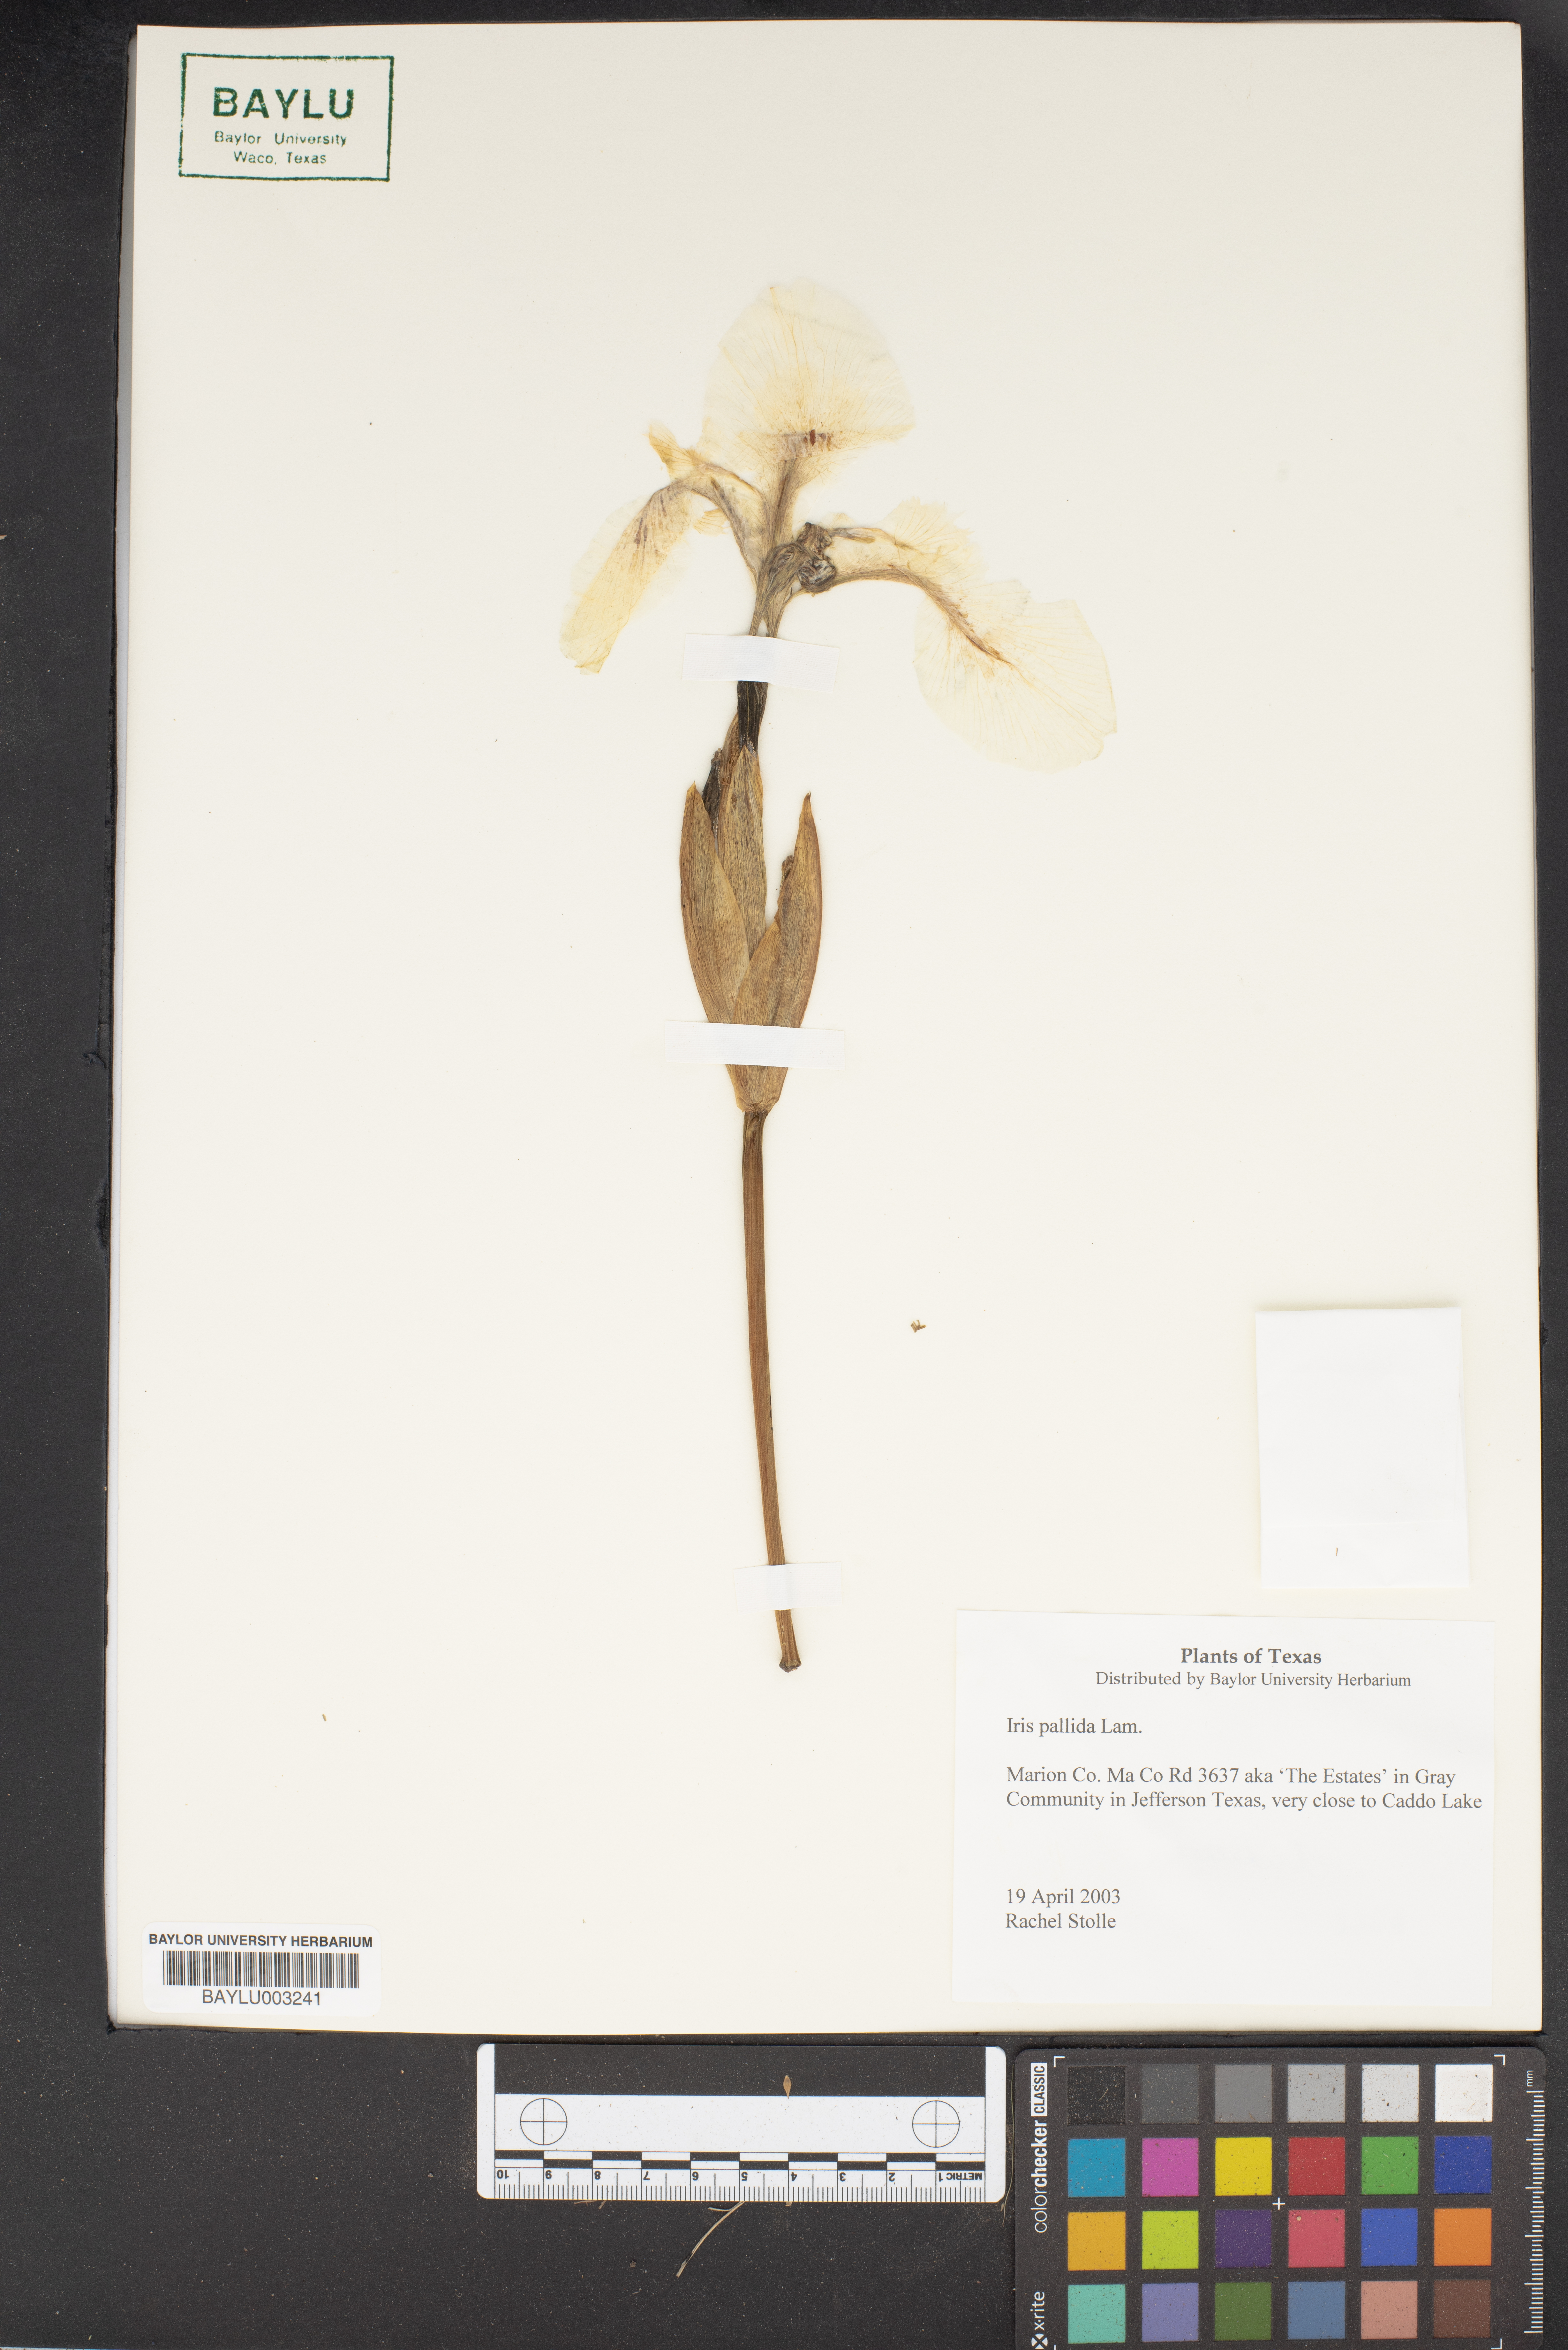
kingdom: Plantae
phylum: Tracheophyta
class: Liliopsida
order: Asparagales
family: Iridaceae
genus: Iris
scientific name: Iris pallida
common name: Sweet iris
